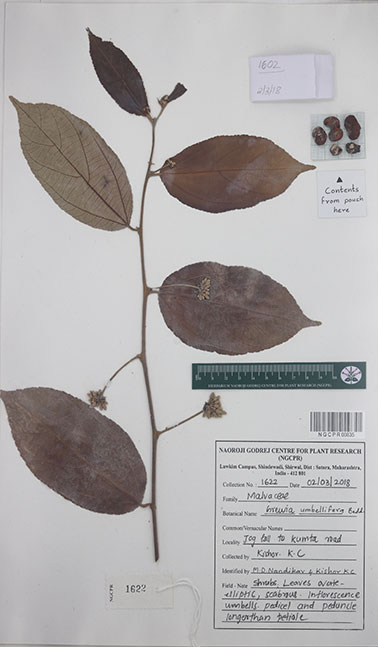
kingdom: Plantae
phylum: Tracheophyta
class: Magnoliopsida
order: Malvales
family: Malvaceae
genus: Grewia
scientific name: Grewia umbellifera
